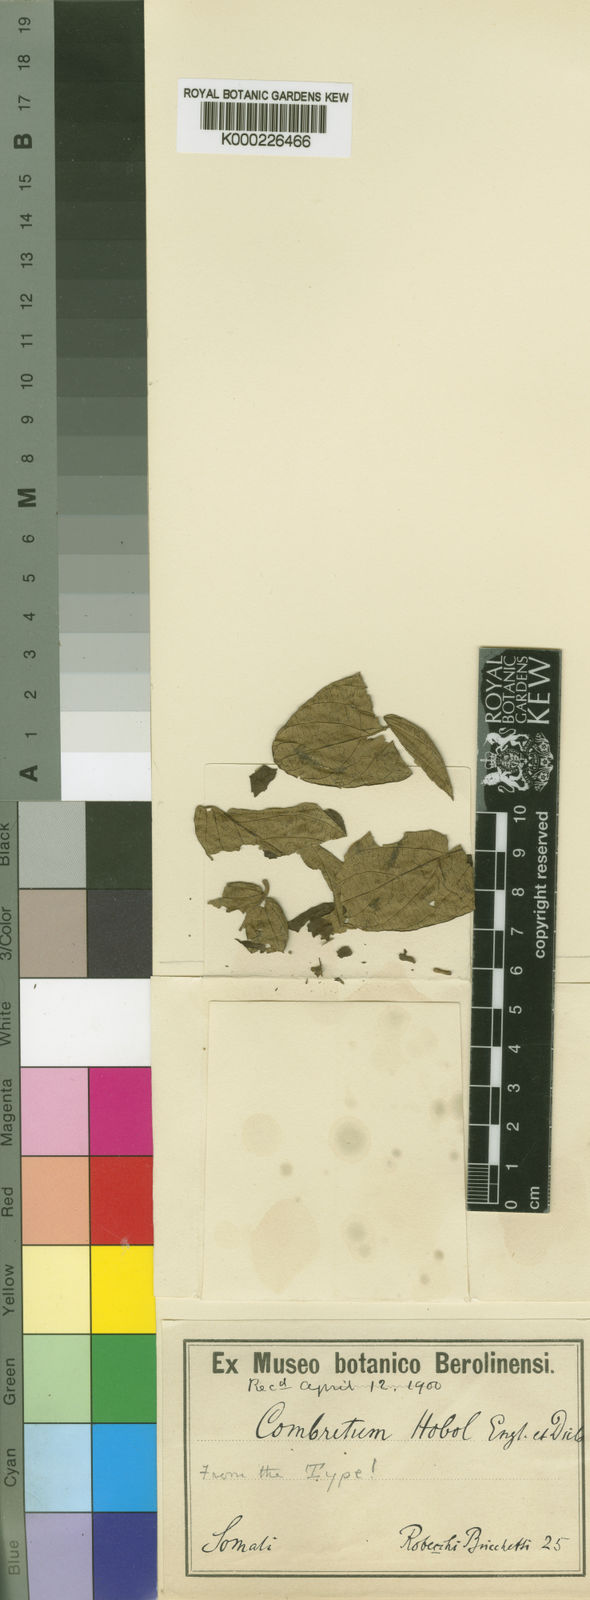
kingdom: Plantae
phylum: Tracheophyta
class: Magnoliopsida
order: Myrtales
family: Combretaceae
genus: Combretum
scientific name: Combretum molle
